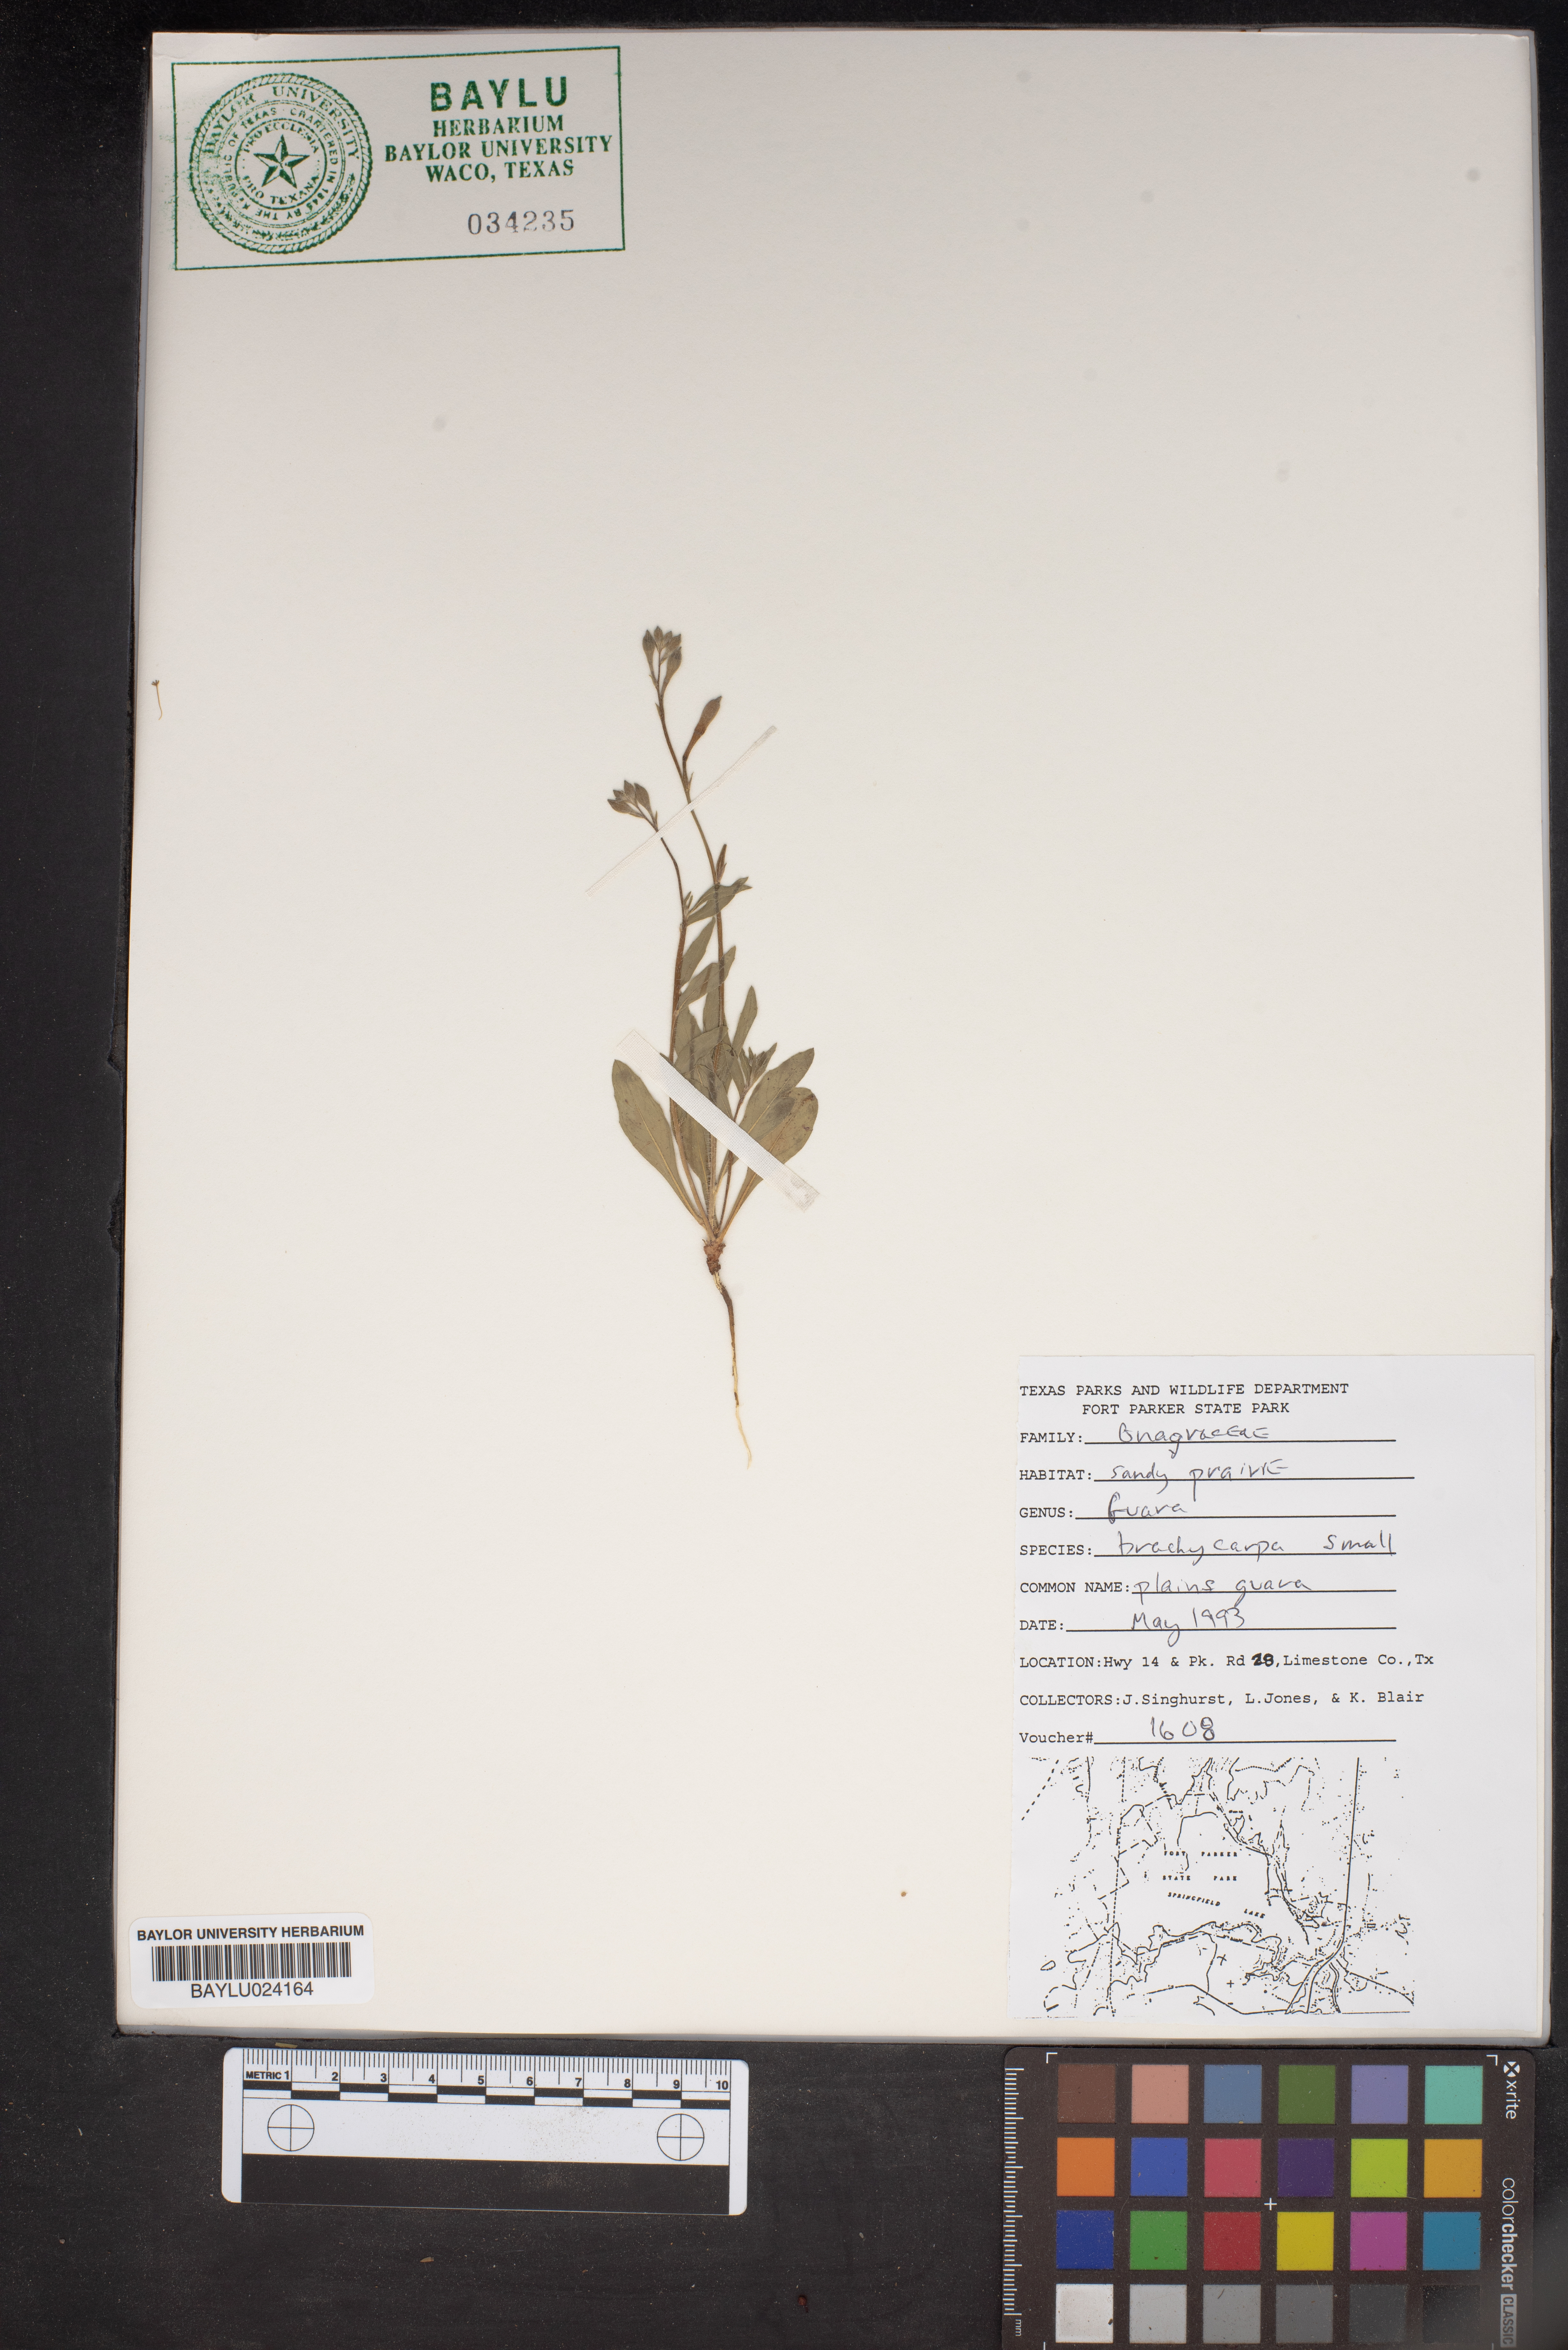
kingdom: Plantae
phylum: Tracheophyta
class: Magnoliopsida
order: Myrtales
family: Onagraceae
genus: Oenothera
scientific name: Oenothera patriciae
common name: Plains beeblossom
